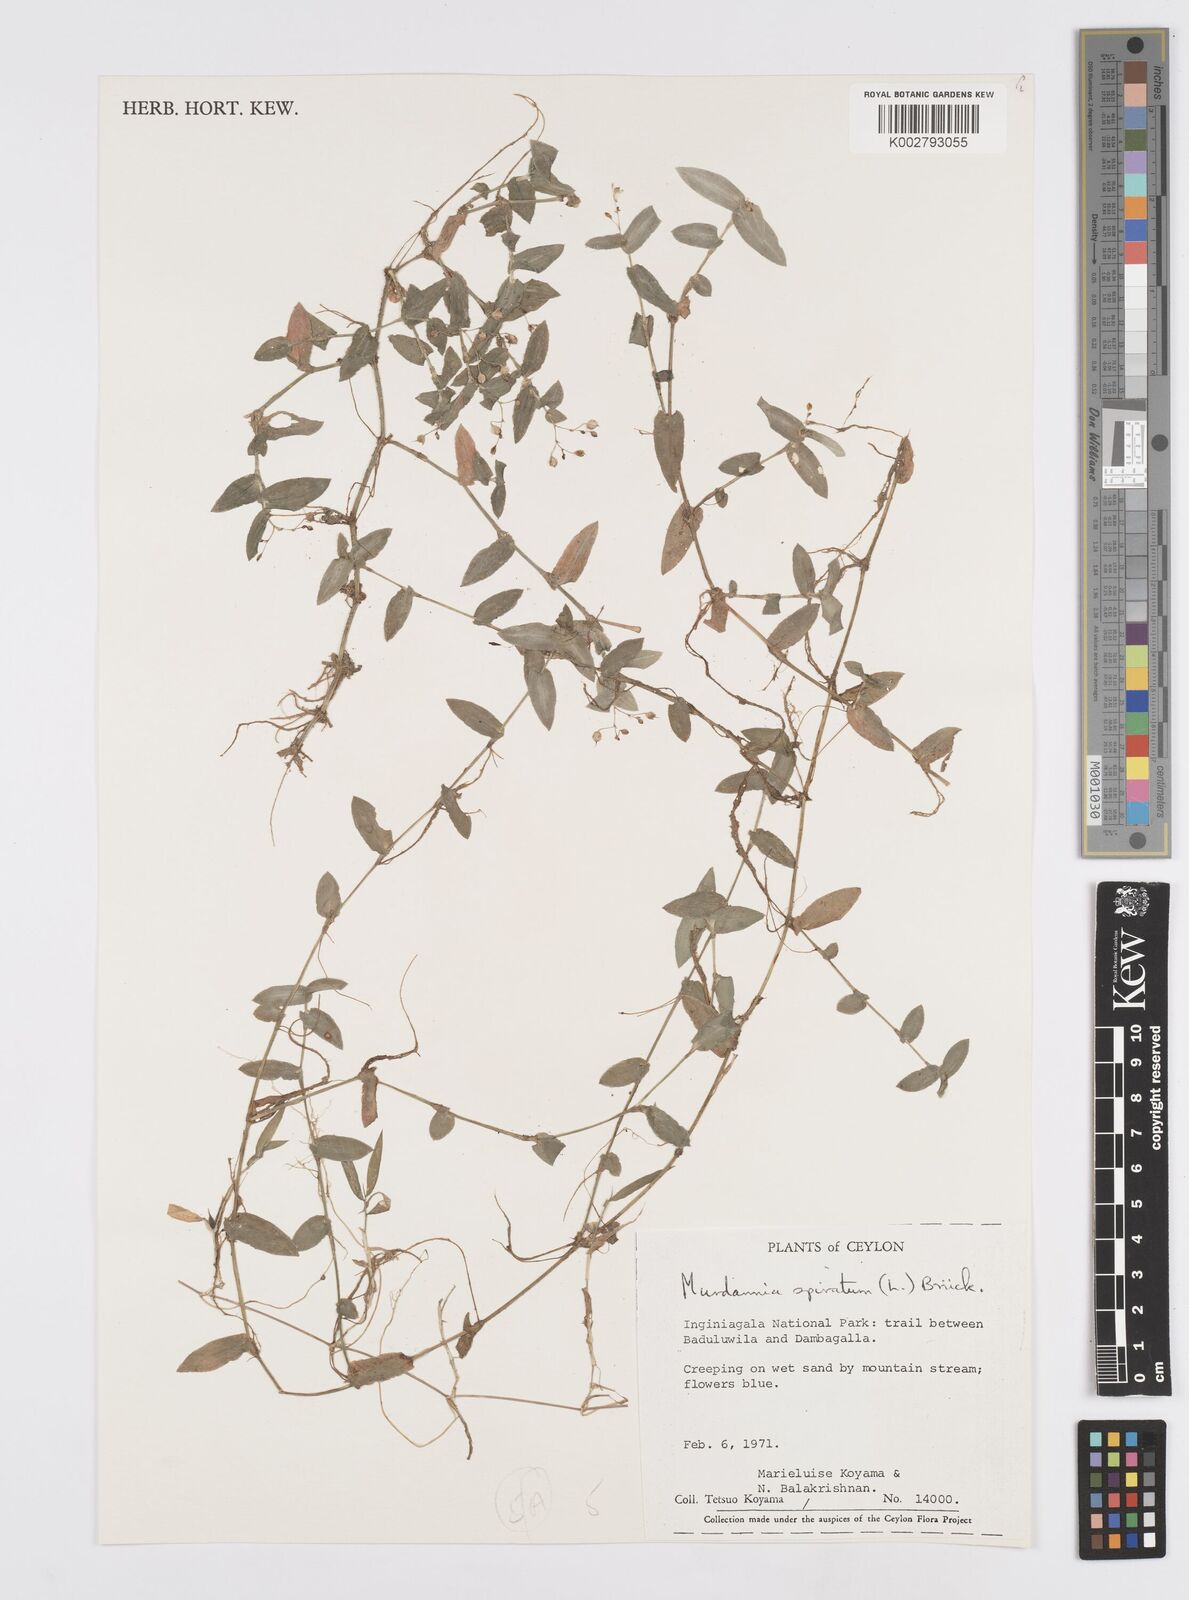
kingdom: Plantae
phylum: Tracheophyta
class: Liliopsida
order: Commelinales
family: Commelinaceae
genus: Murdannia
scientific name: Murdannia spirata
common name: Asiatic dewflower
